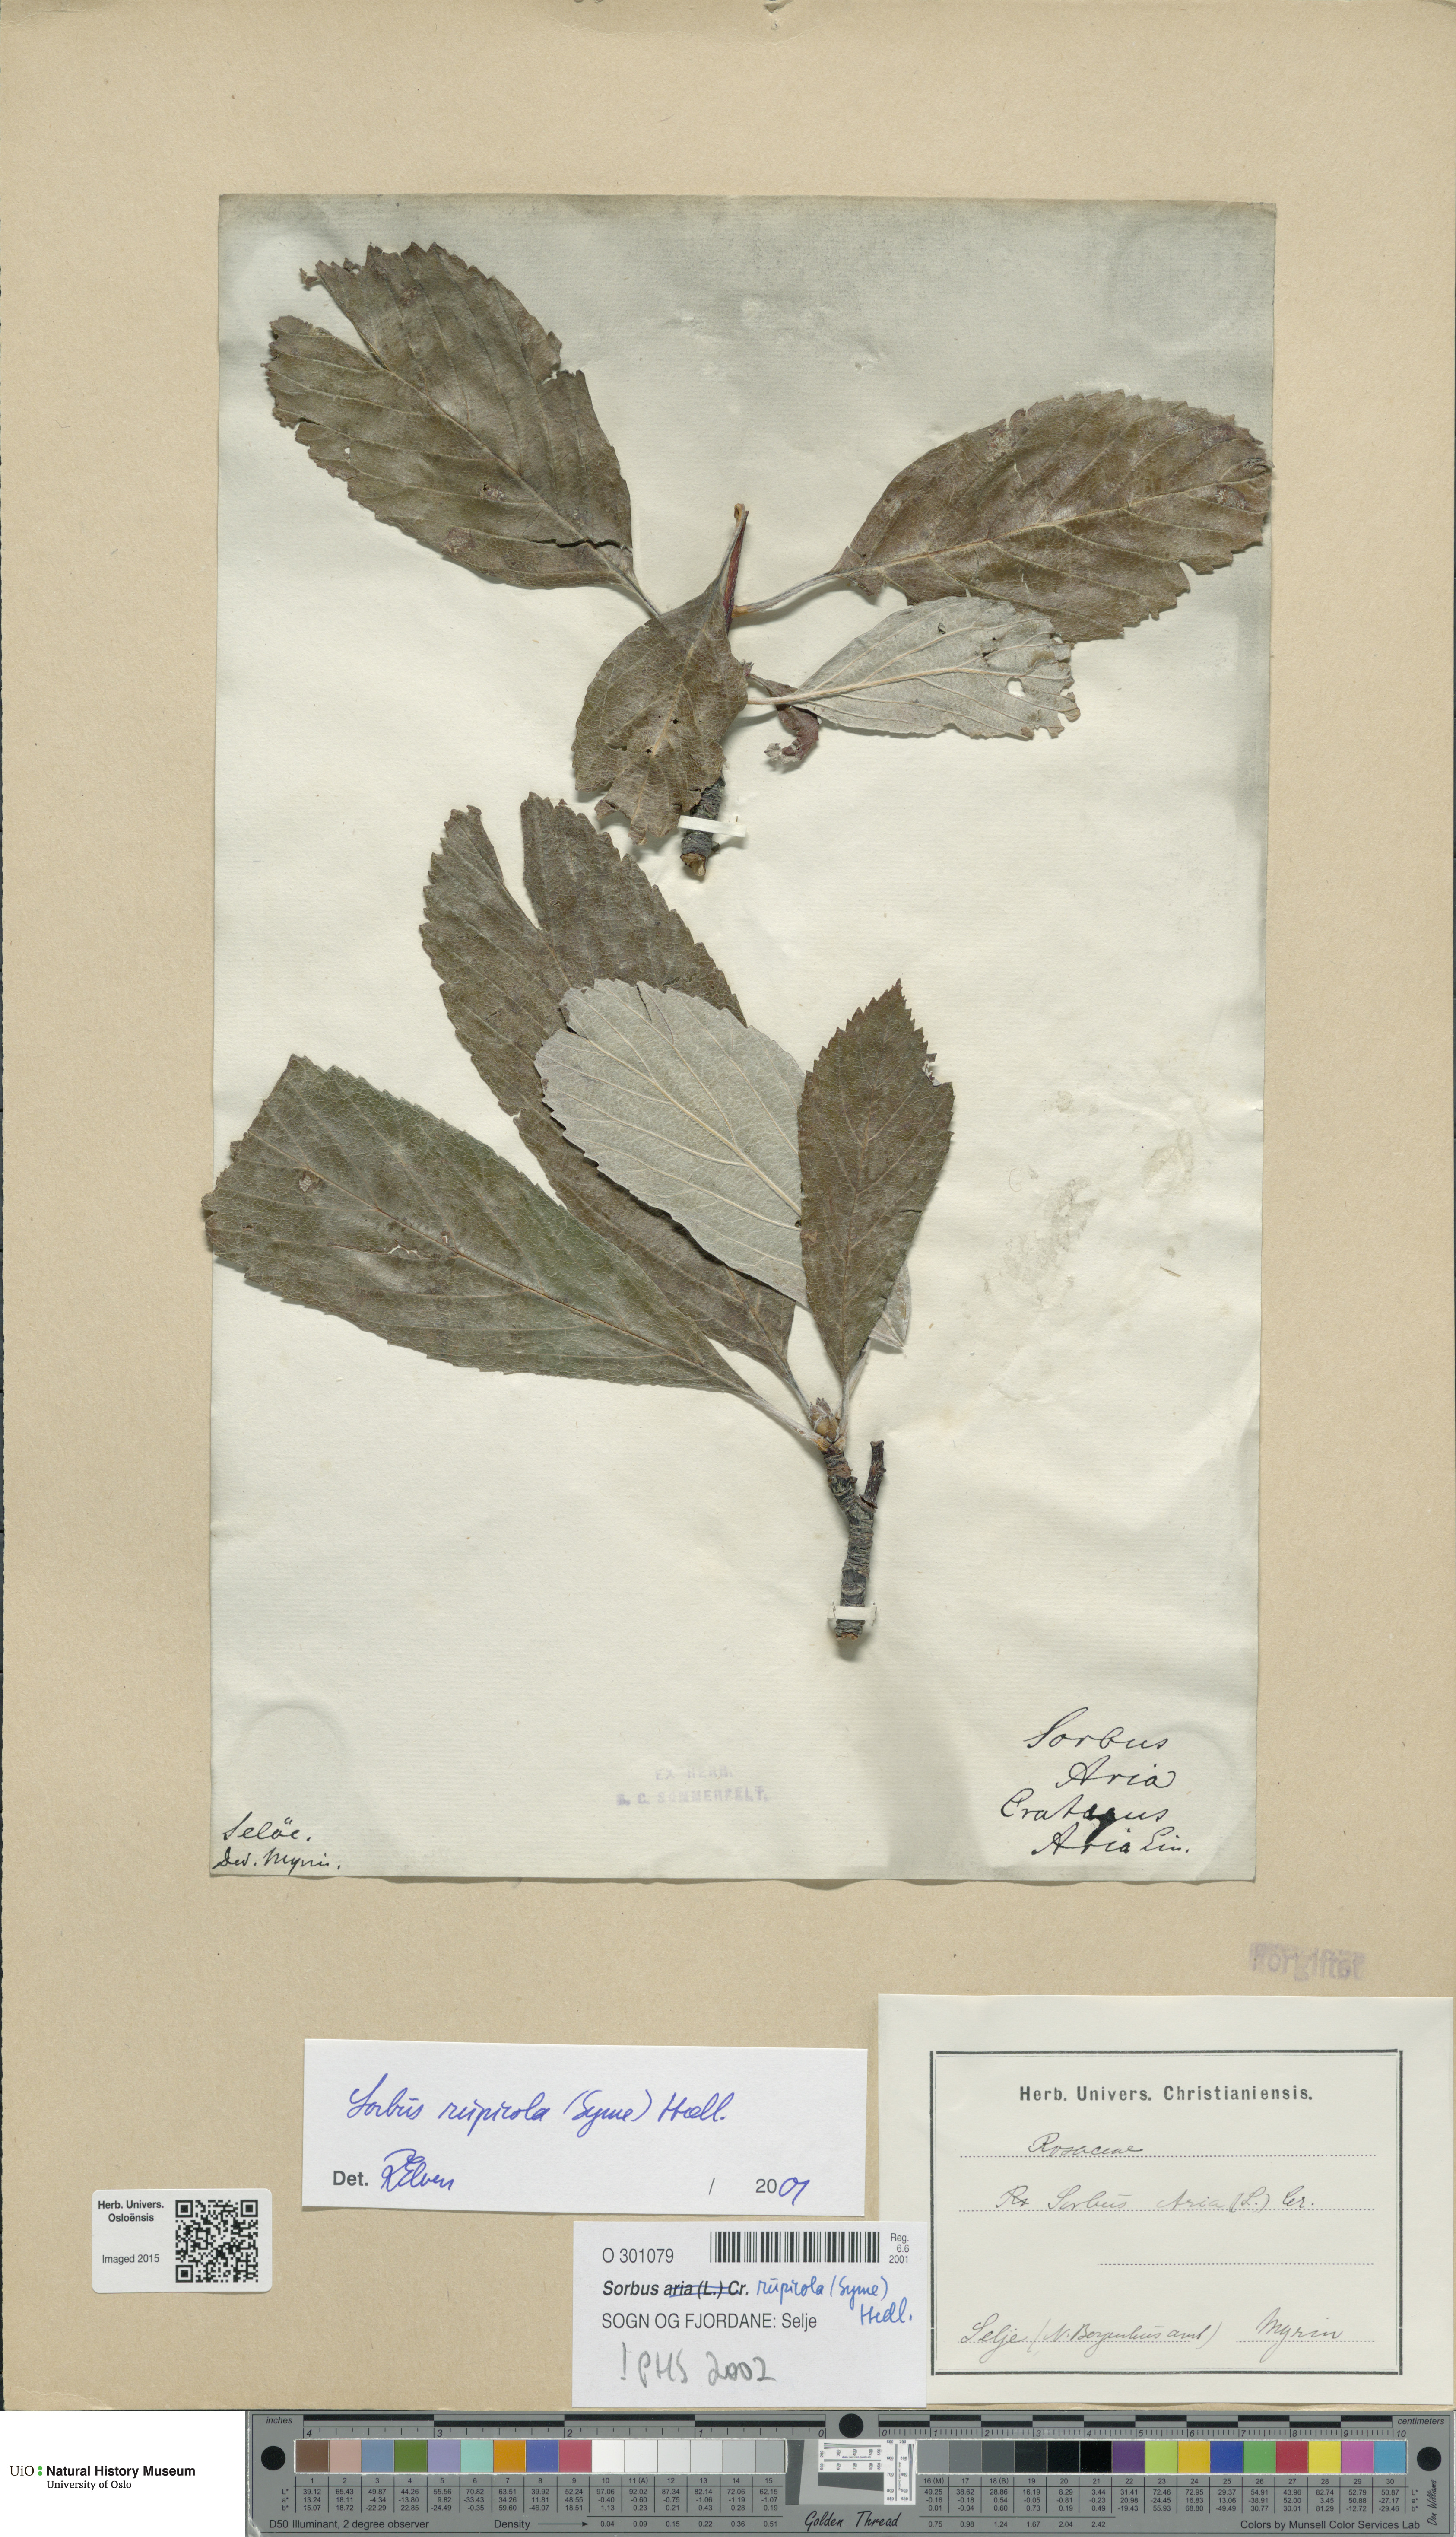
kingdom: Plantae
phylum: Tracheophyta
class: Magnoliopsida
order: Rosales
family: Rosaceae
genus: Aria
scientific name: Aria rupicola
